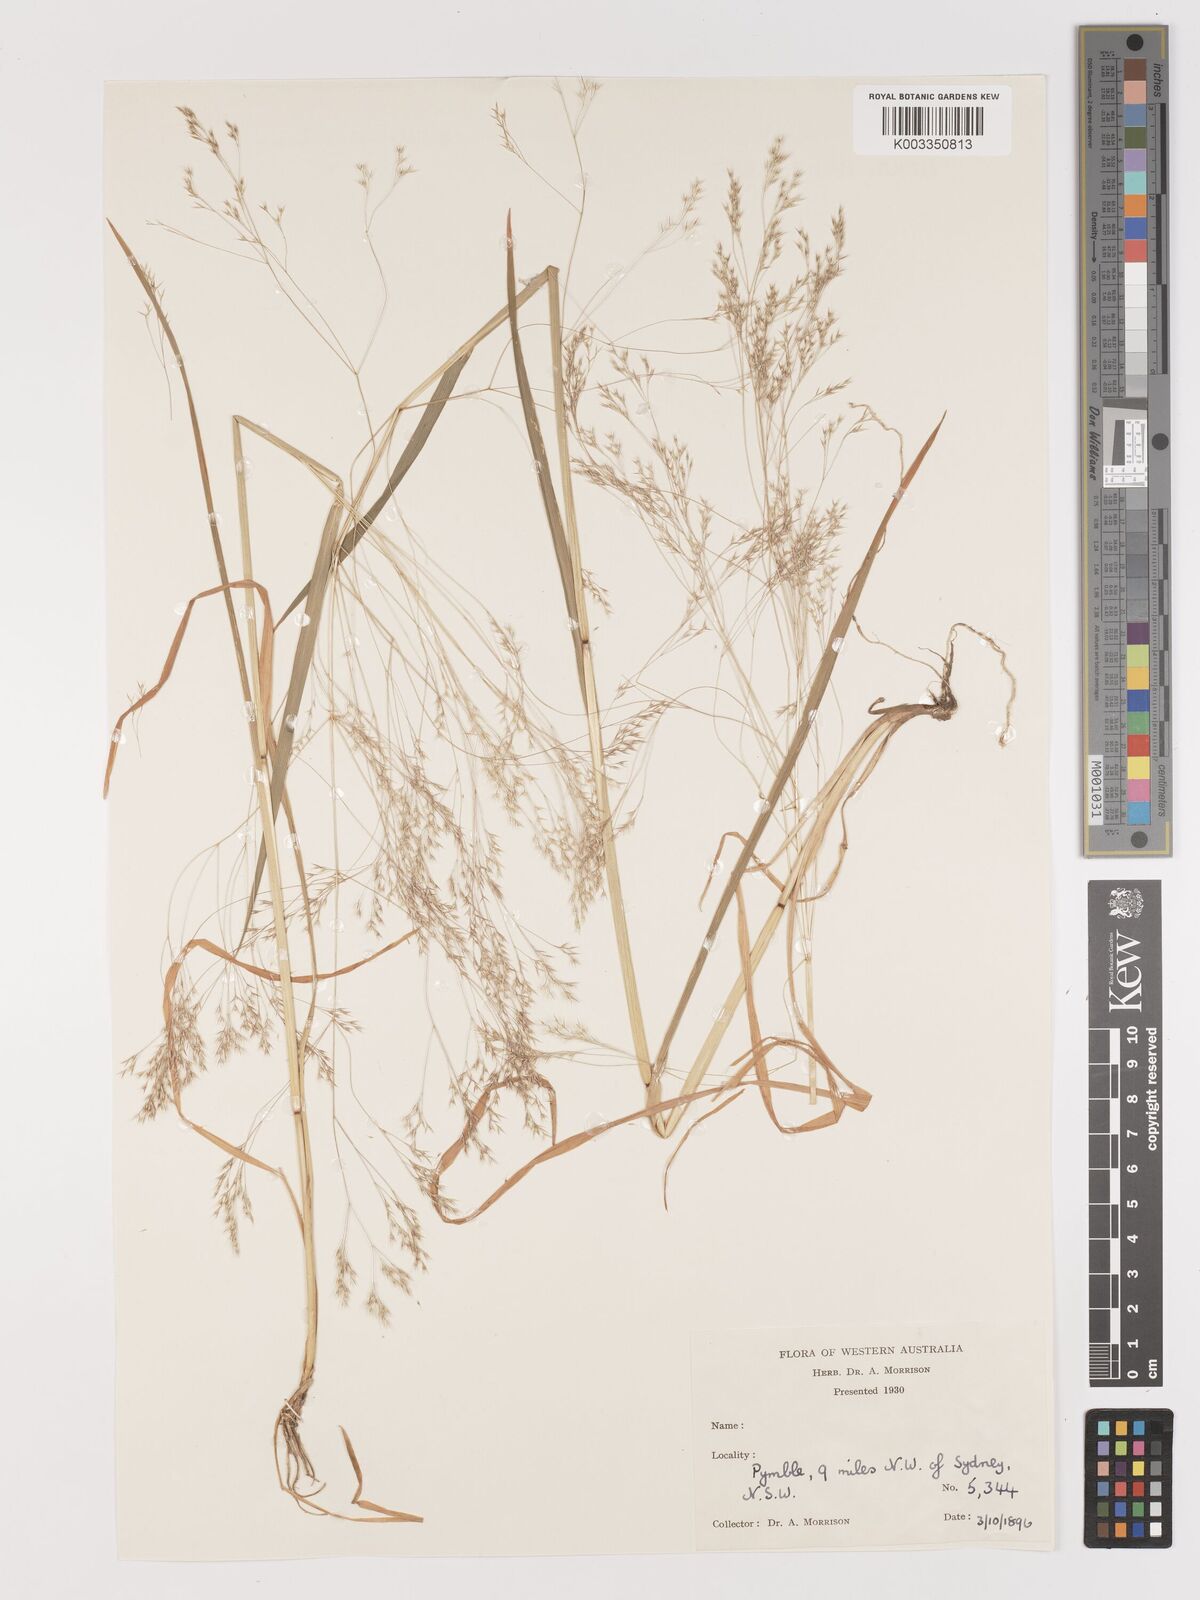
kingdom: Plantae
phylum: Tracheophyta
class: Liliopsida
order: Poales
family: Poaceae
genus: Lachnagrostis
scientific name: Lachnagrostis filiformis
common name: Bentgrass
